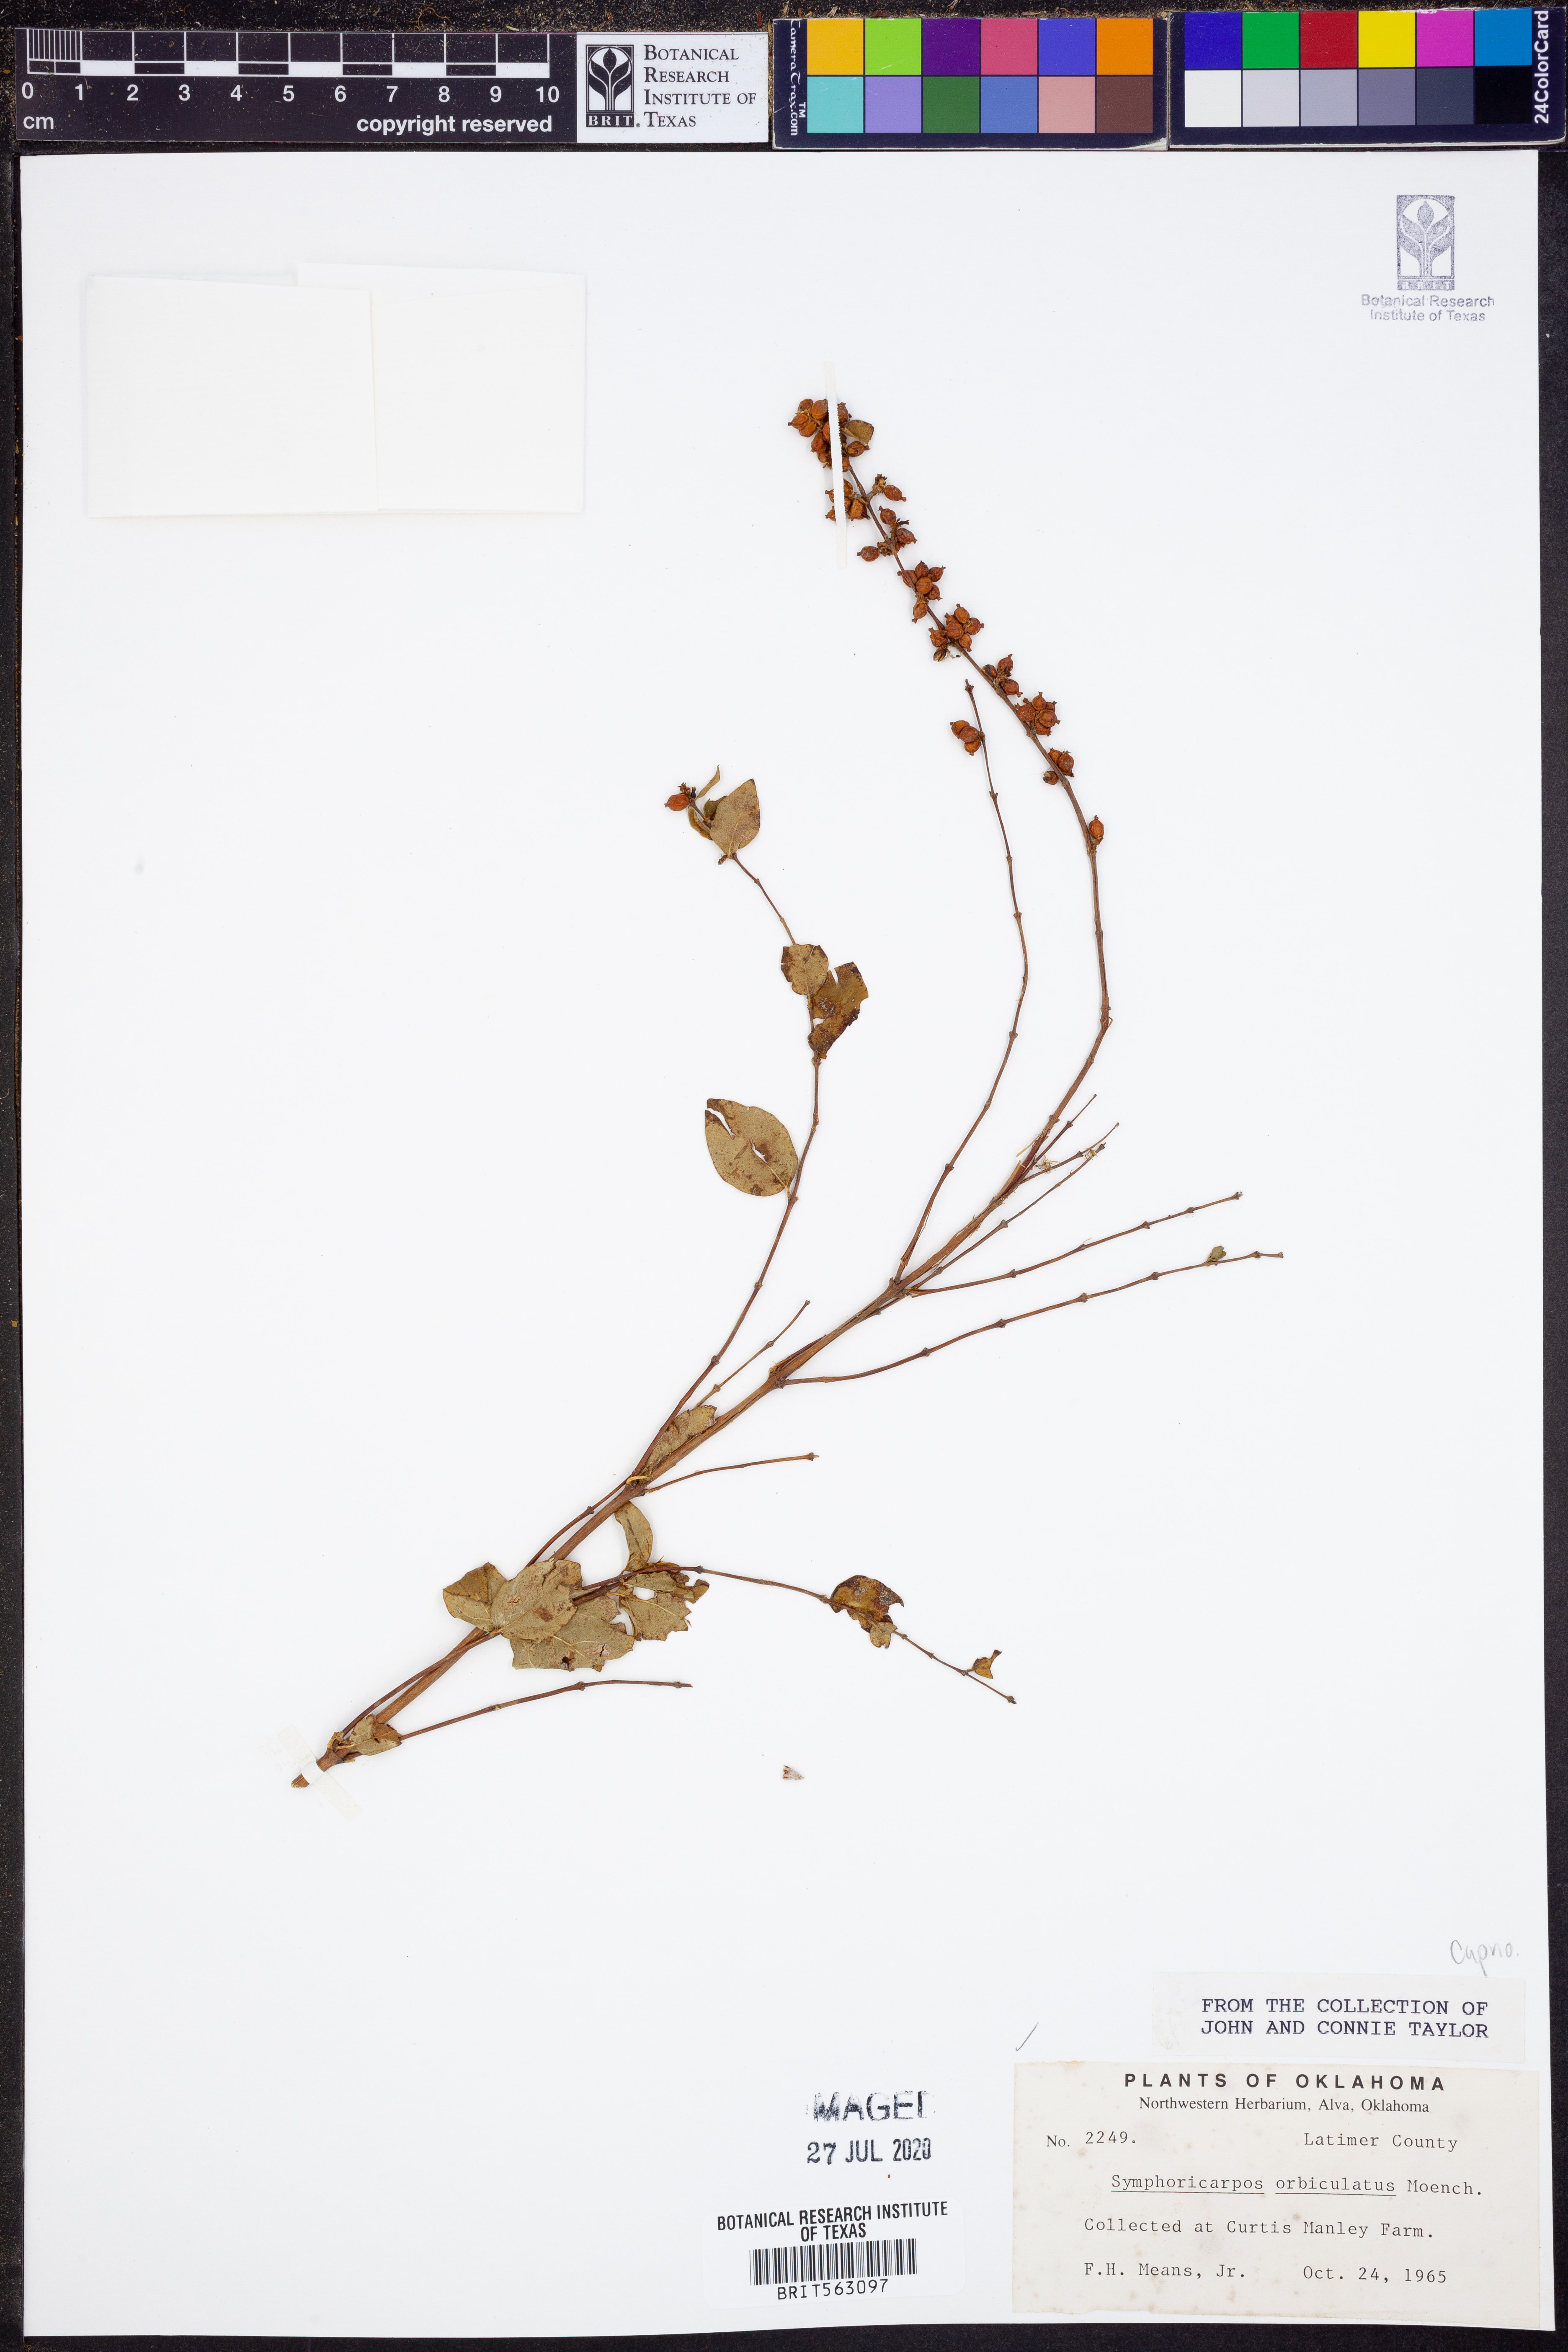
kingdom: Plantae
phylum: Tracheophyta
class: Magnoliopsida
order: Dipsacales
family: Caprifoliaceae
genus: Symphoricarpos
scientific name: Symphoricarpos orbiculatus
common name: Coralberry
